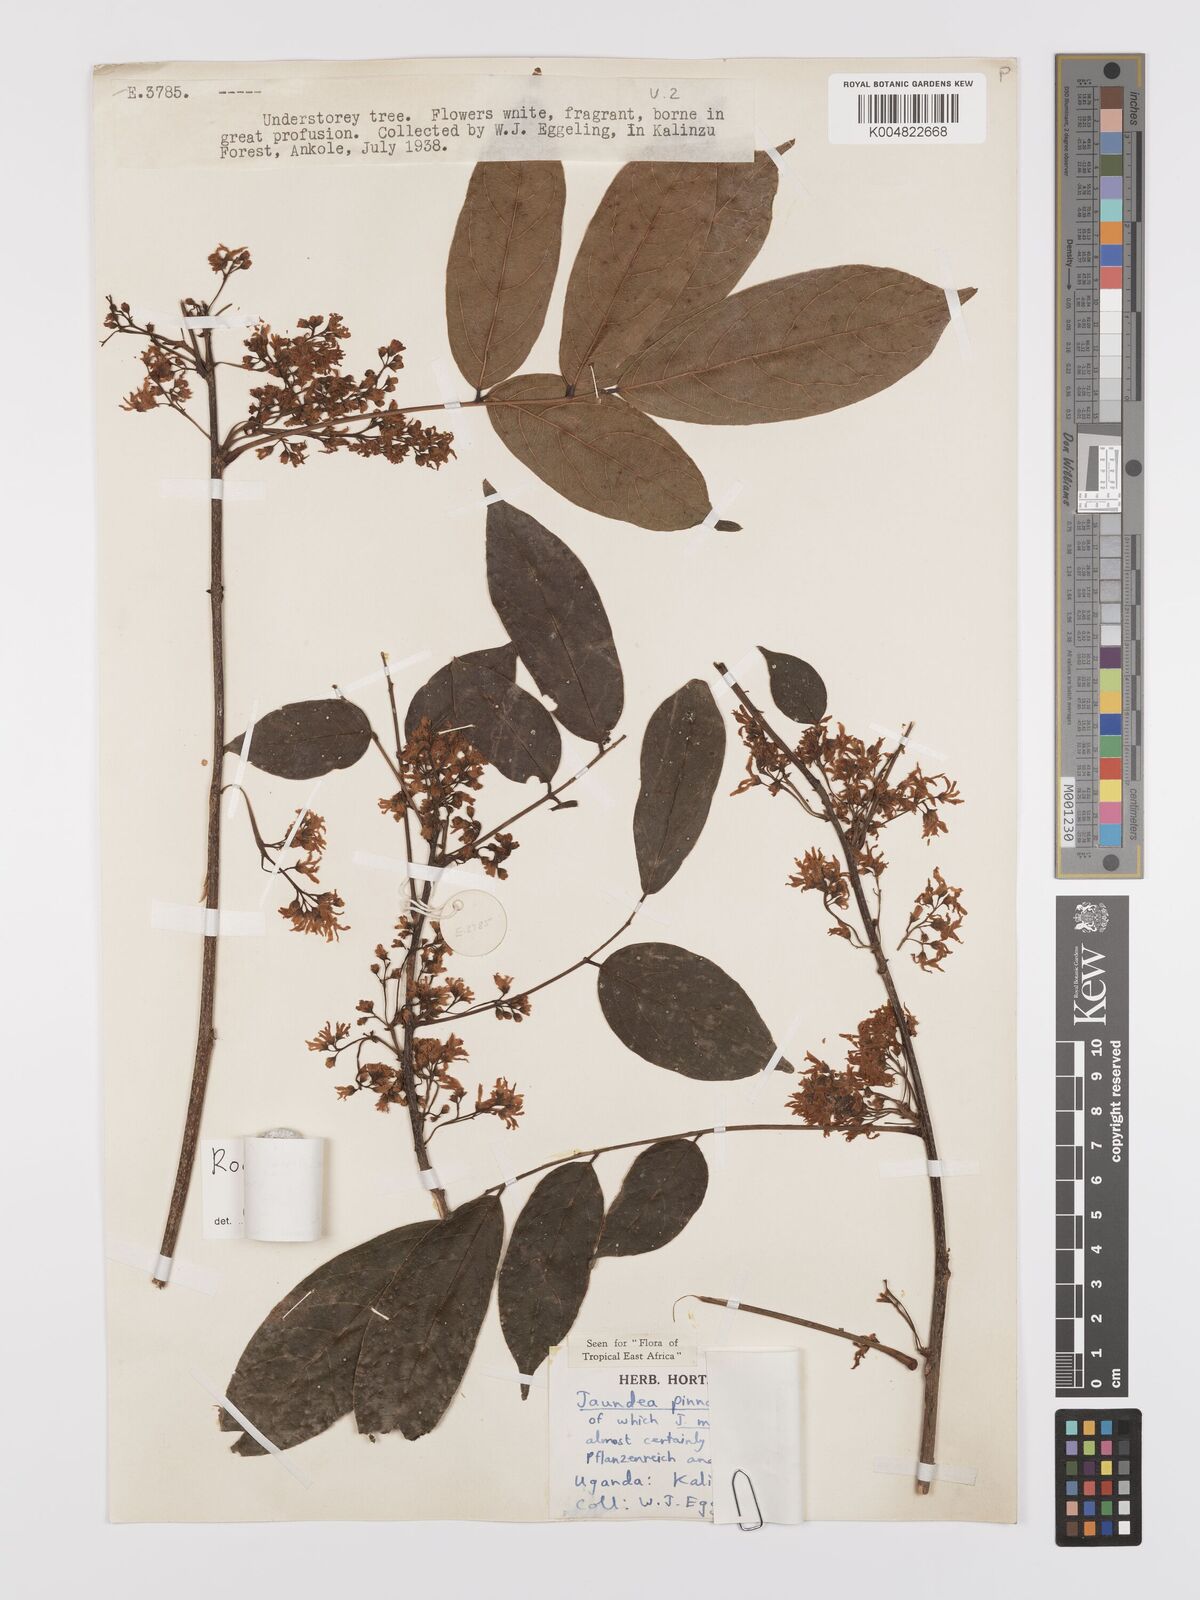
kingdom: Plantae
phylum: Tracheophyta
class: Magnoliopsida
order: Oxalidales
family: Connaraceae
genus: Rourea
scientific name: Rourea pinnata
